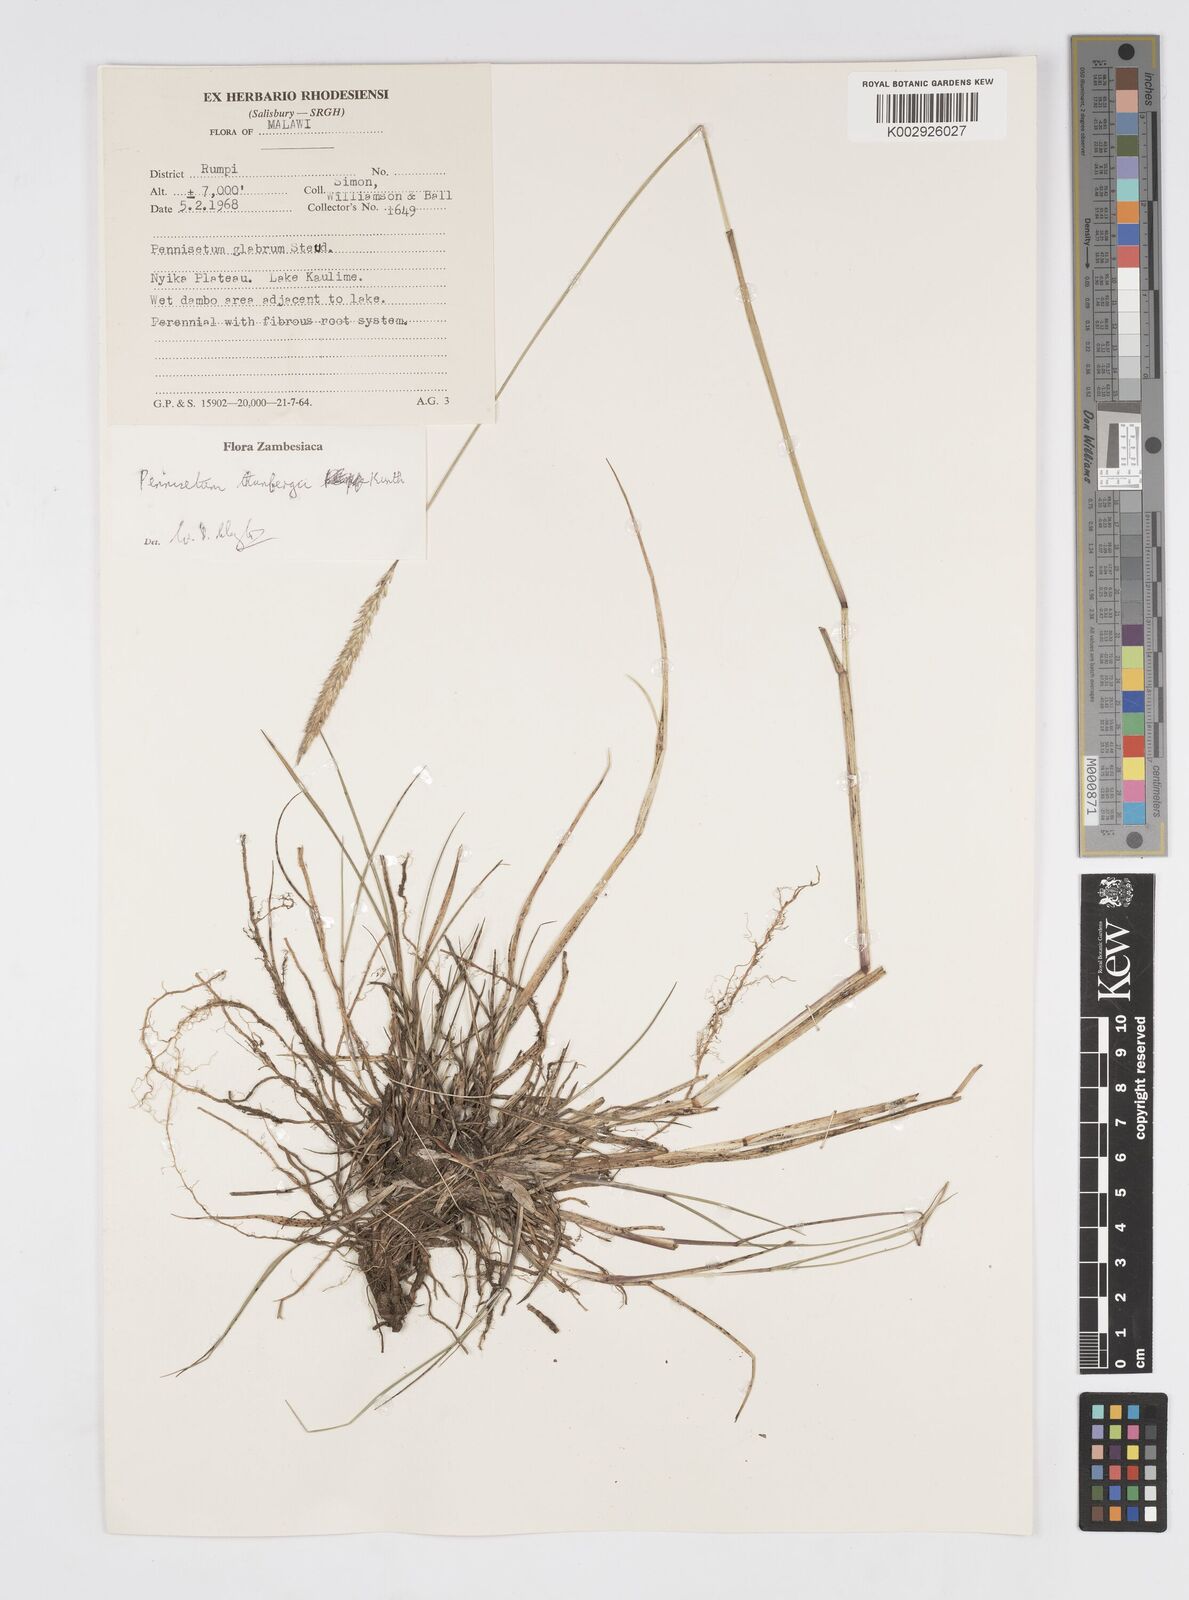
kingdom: Plantae
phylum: Tracheophyta
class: Liliopsida
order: Poales
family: Poaceae
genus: Cenchrus
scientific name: Cenchrus geniculatus
